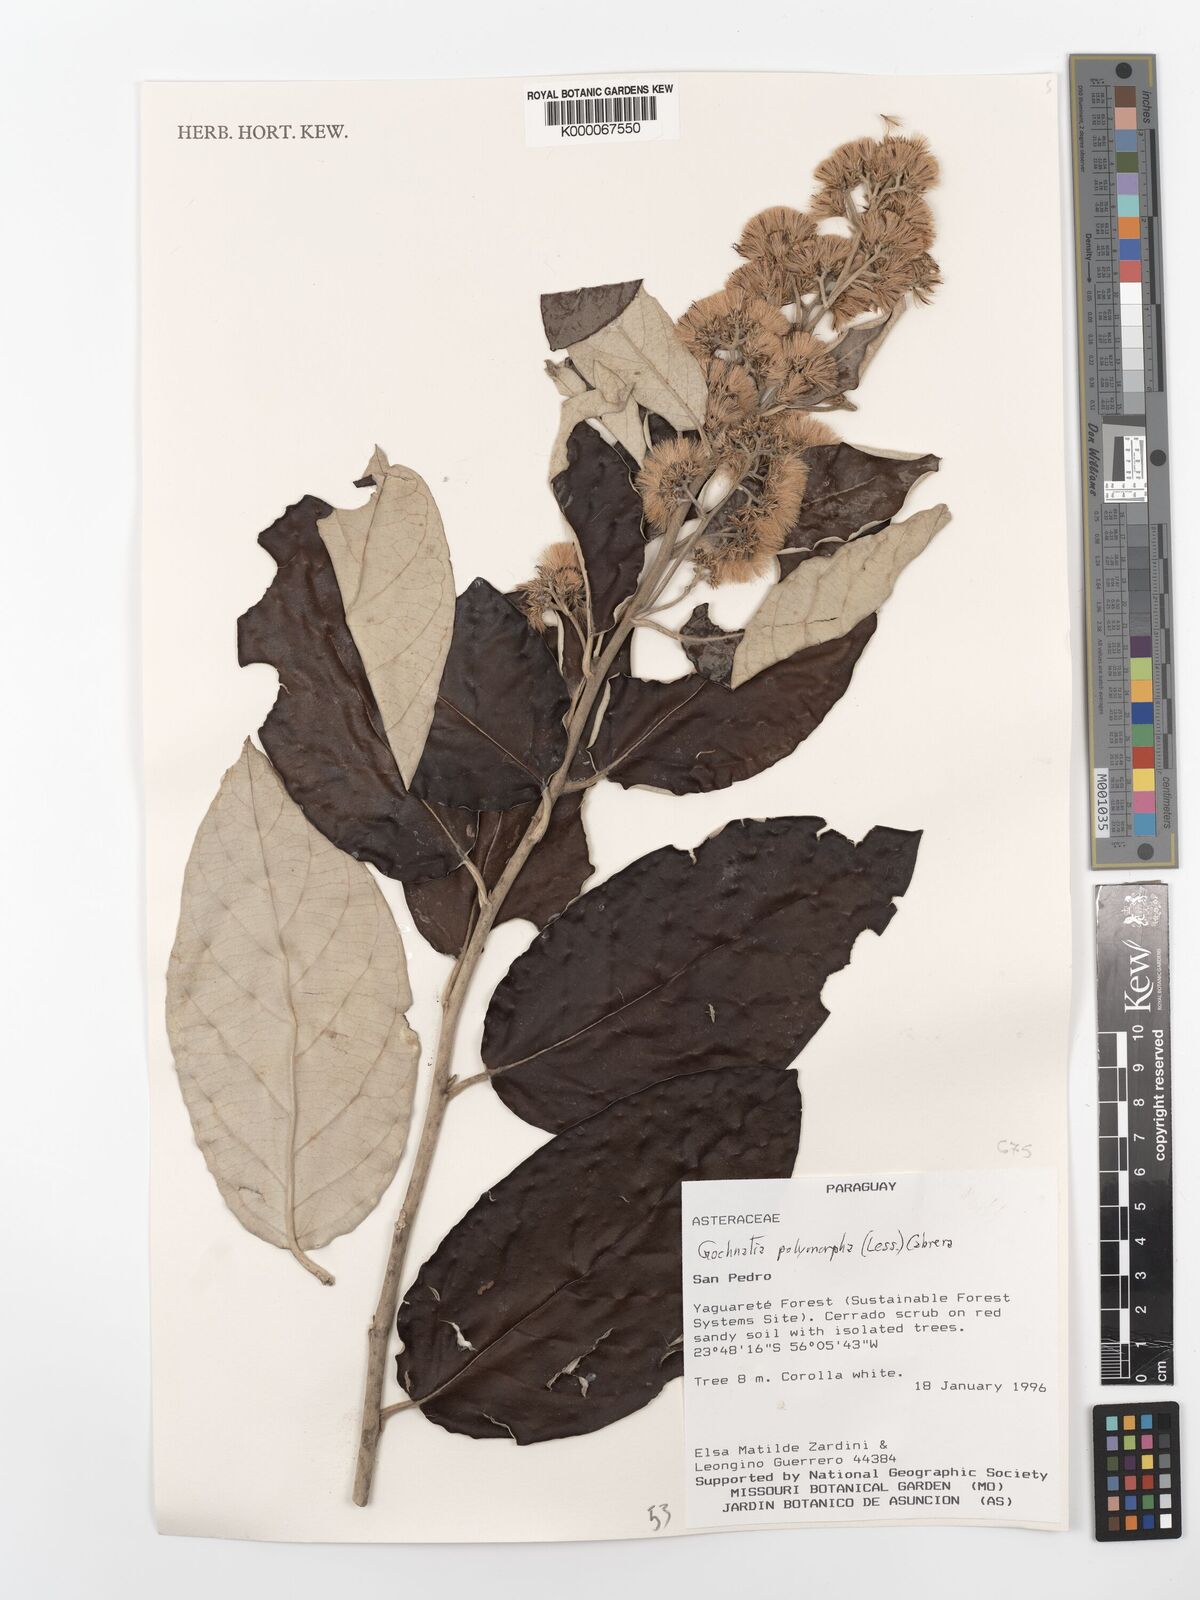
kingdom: Plantae
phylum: Tracheophyta
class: Magnoliopsida
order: Asterales
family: Asteraceae
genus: Moquiniastrum
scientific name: Moquiniastrum polymorphum
